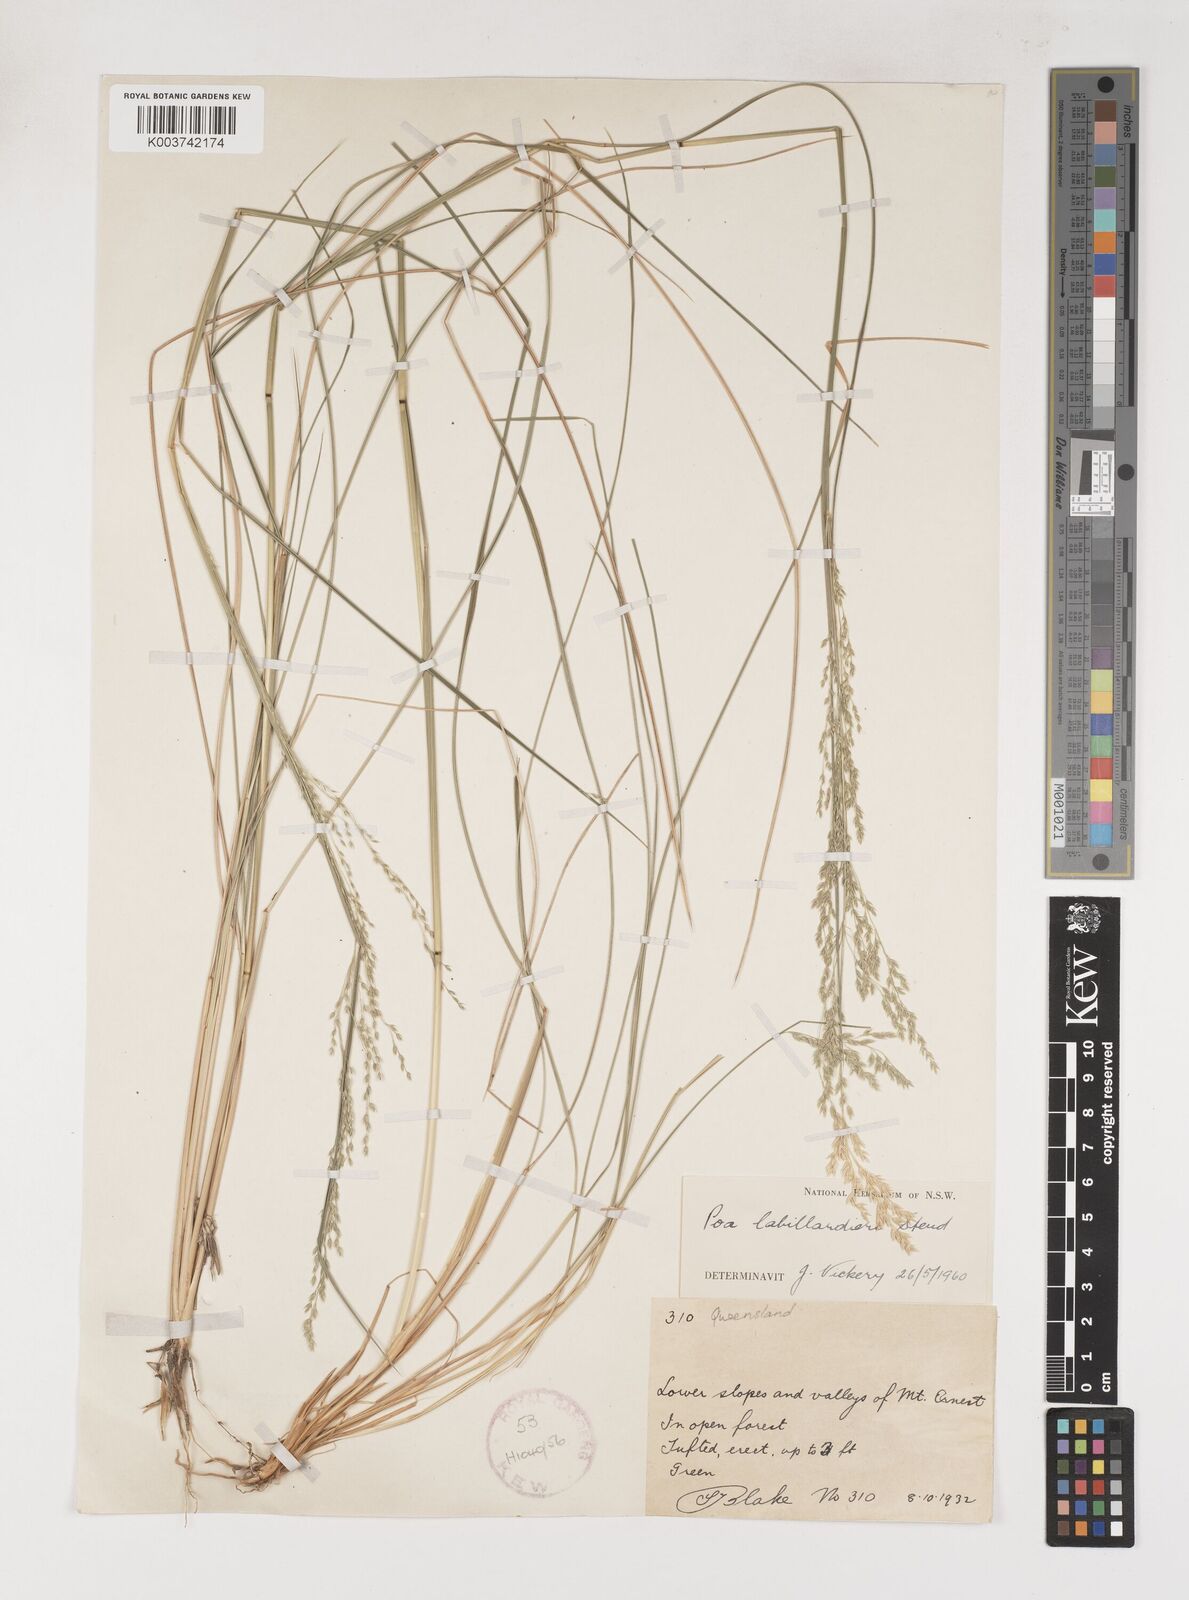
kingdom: Plantae
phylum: Tracheophyta
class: Liliopsida
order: Poales
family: Poaceae
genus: Poa
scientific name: Poa labillardierei
